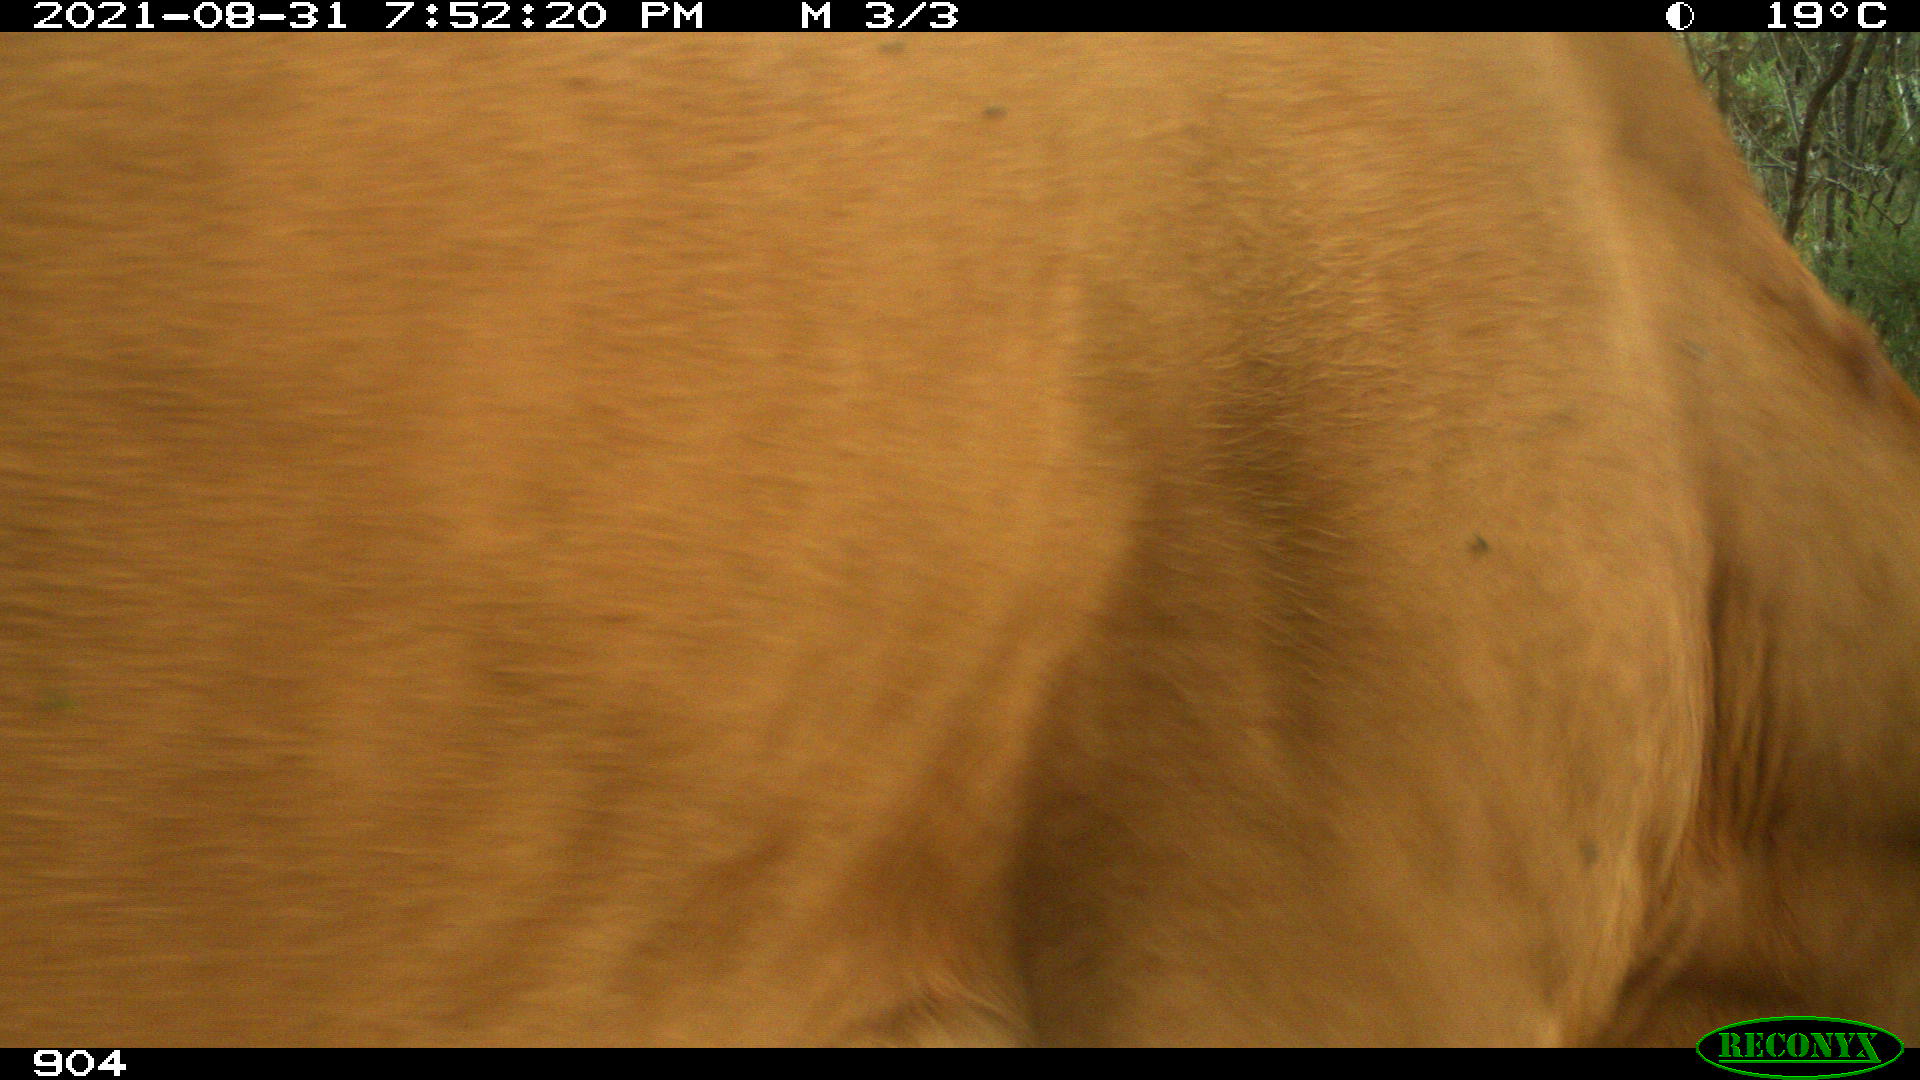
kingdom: Animalia
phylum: Chordata
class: Mammalia
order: Artiodactyla
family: Bovidae
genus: Bos
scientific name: Bos taurus
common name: Domesticated cattle
